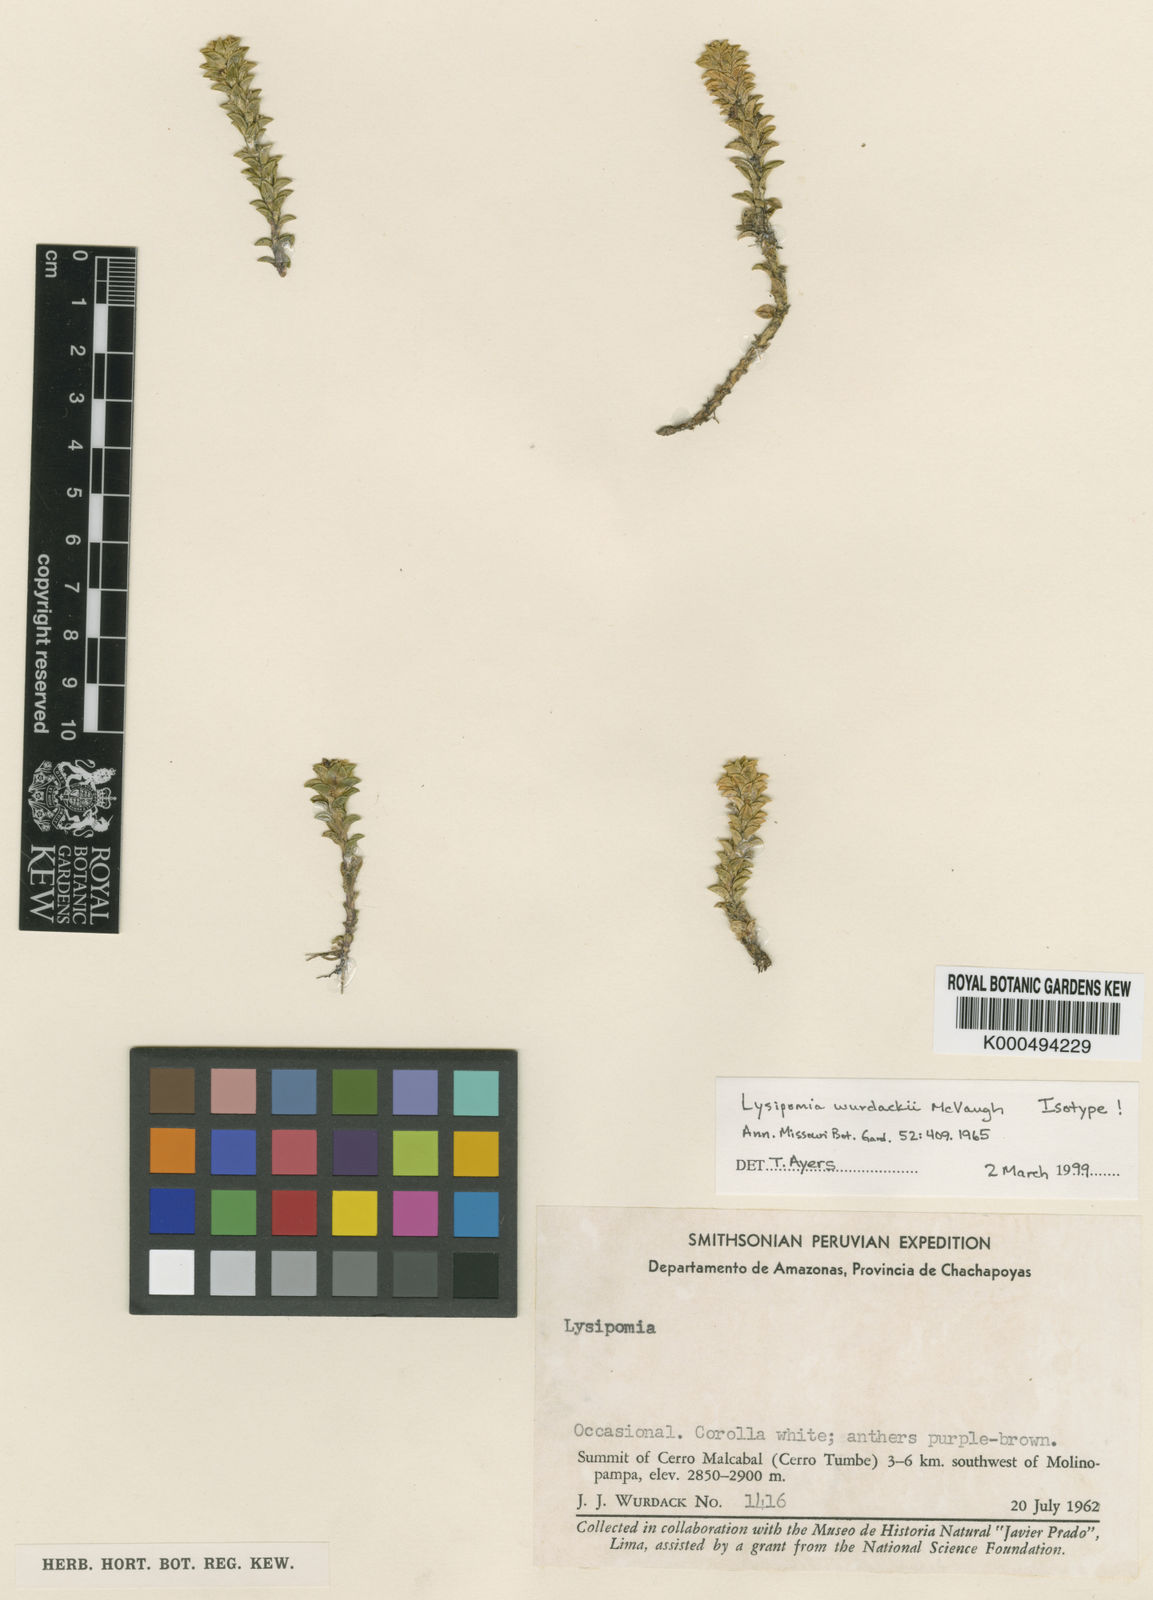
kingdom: Plantae
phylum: Tracheophyta
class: Magnoliopsida
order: Asterales
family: Campanulaceae
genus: Lysipomia
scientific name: Lysipomia wurdackii
